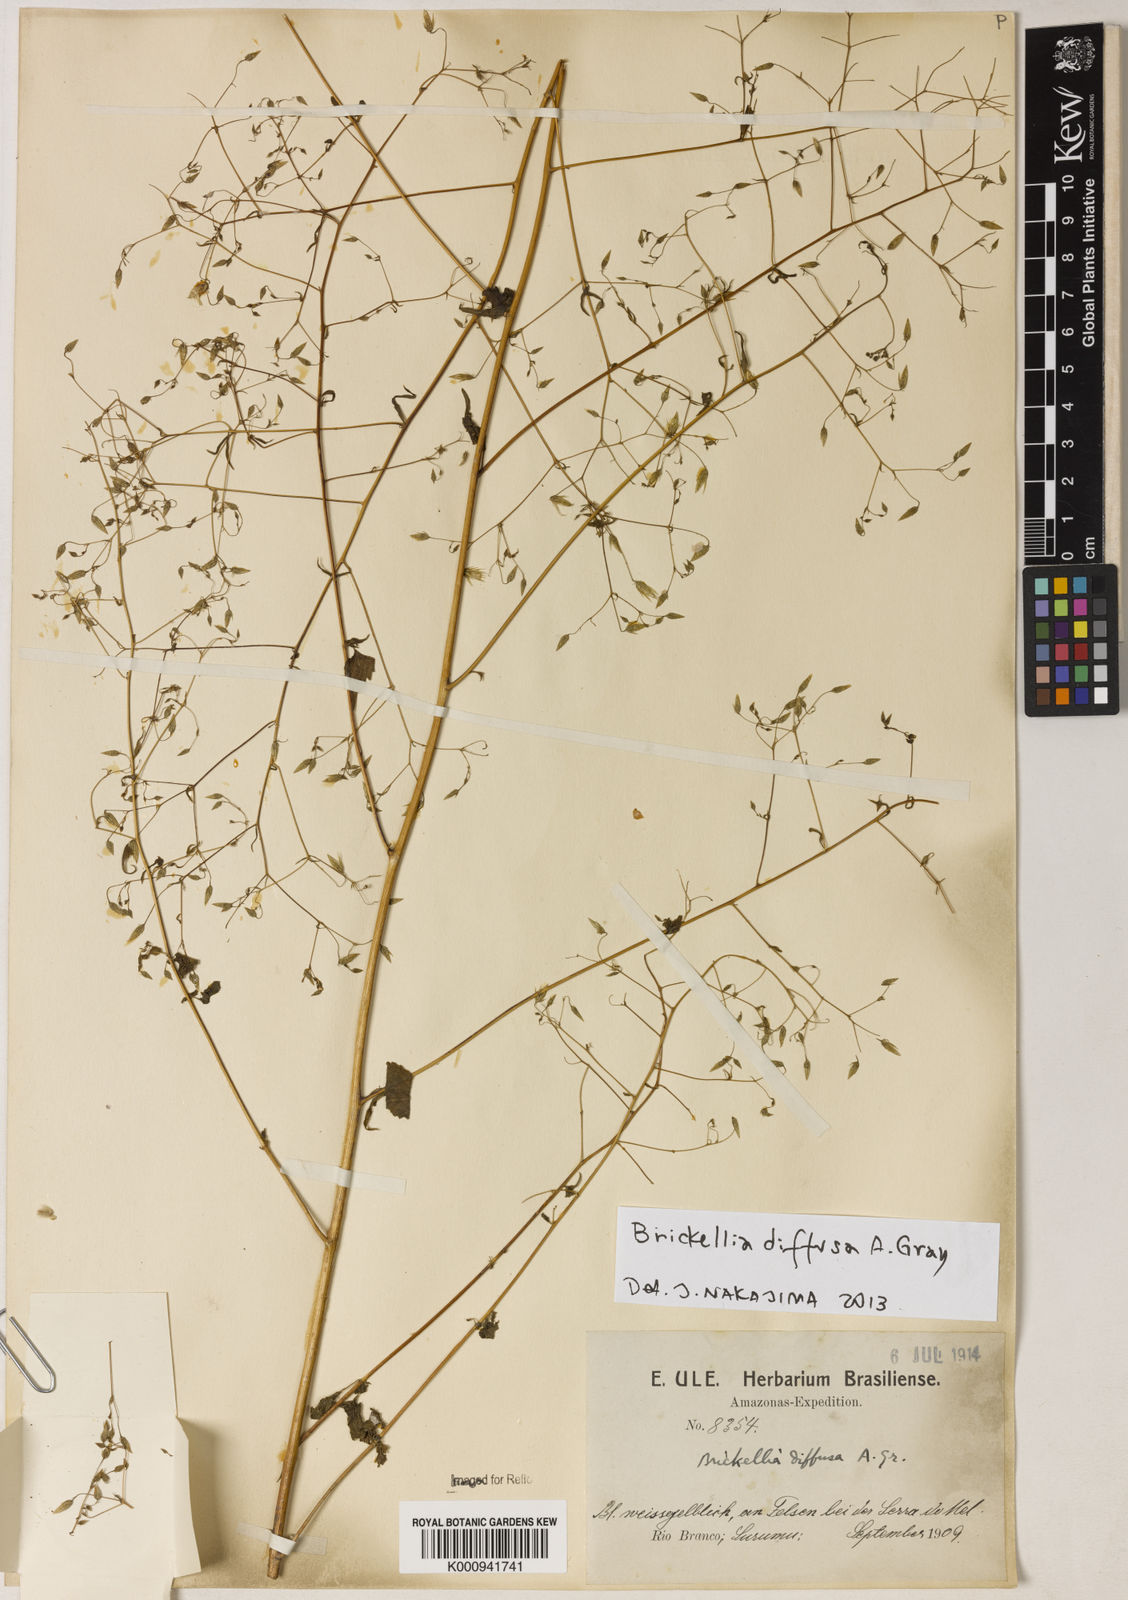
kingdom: Plantae
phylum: Tracheophyta
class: Magnoliopsida
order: Asterales
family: Asteraceae
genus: Brickellia
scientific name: Brickellia diffusa
